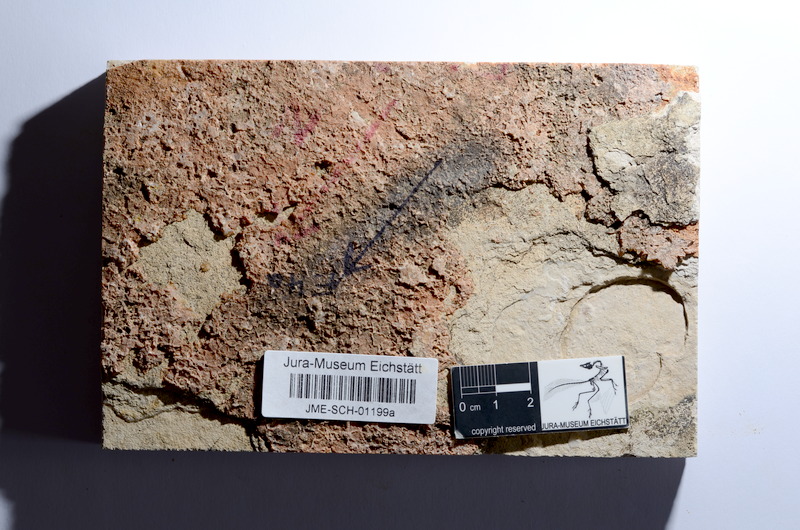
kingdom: Animalia
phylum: Chordata
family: Ascalaboidae
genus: Tharsis
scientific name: Tharsis dubius
